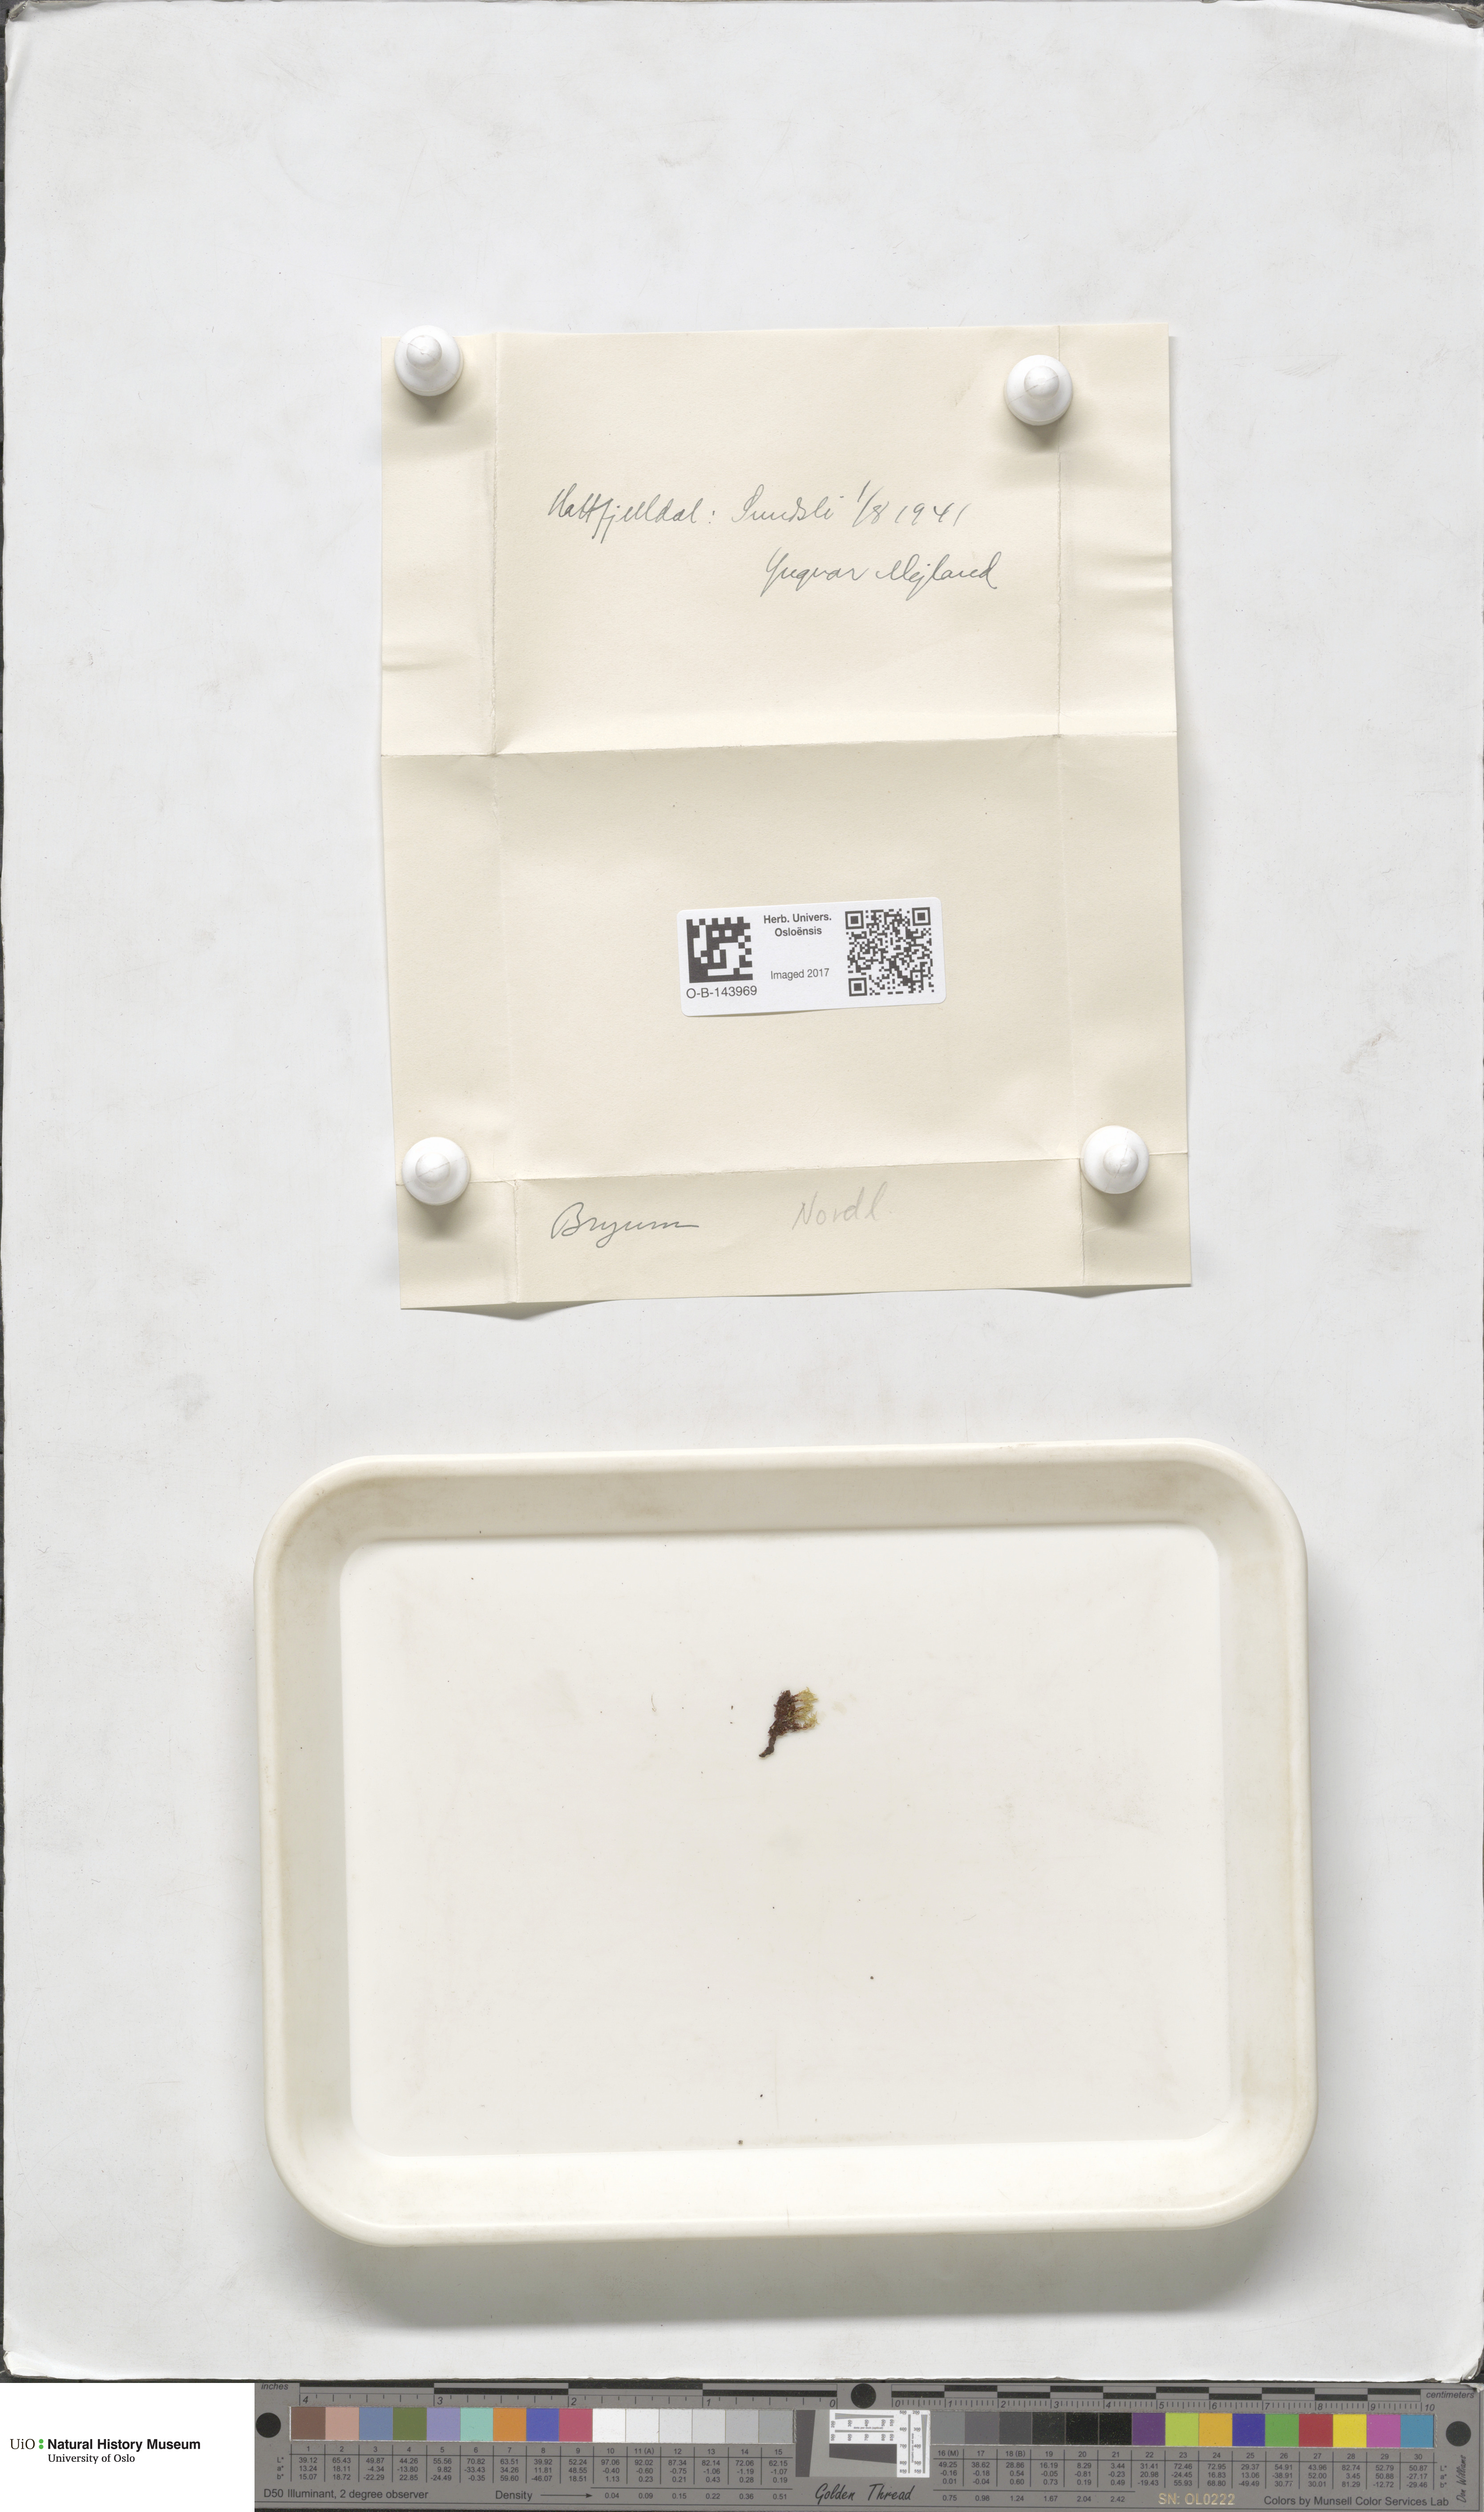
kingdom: Plantae
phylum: Bryophyta
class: Bryopsida
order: Bryales
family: Bryaceae
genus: Bryum
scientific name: Bryum
